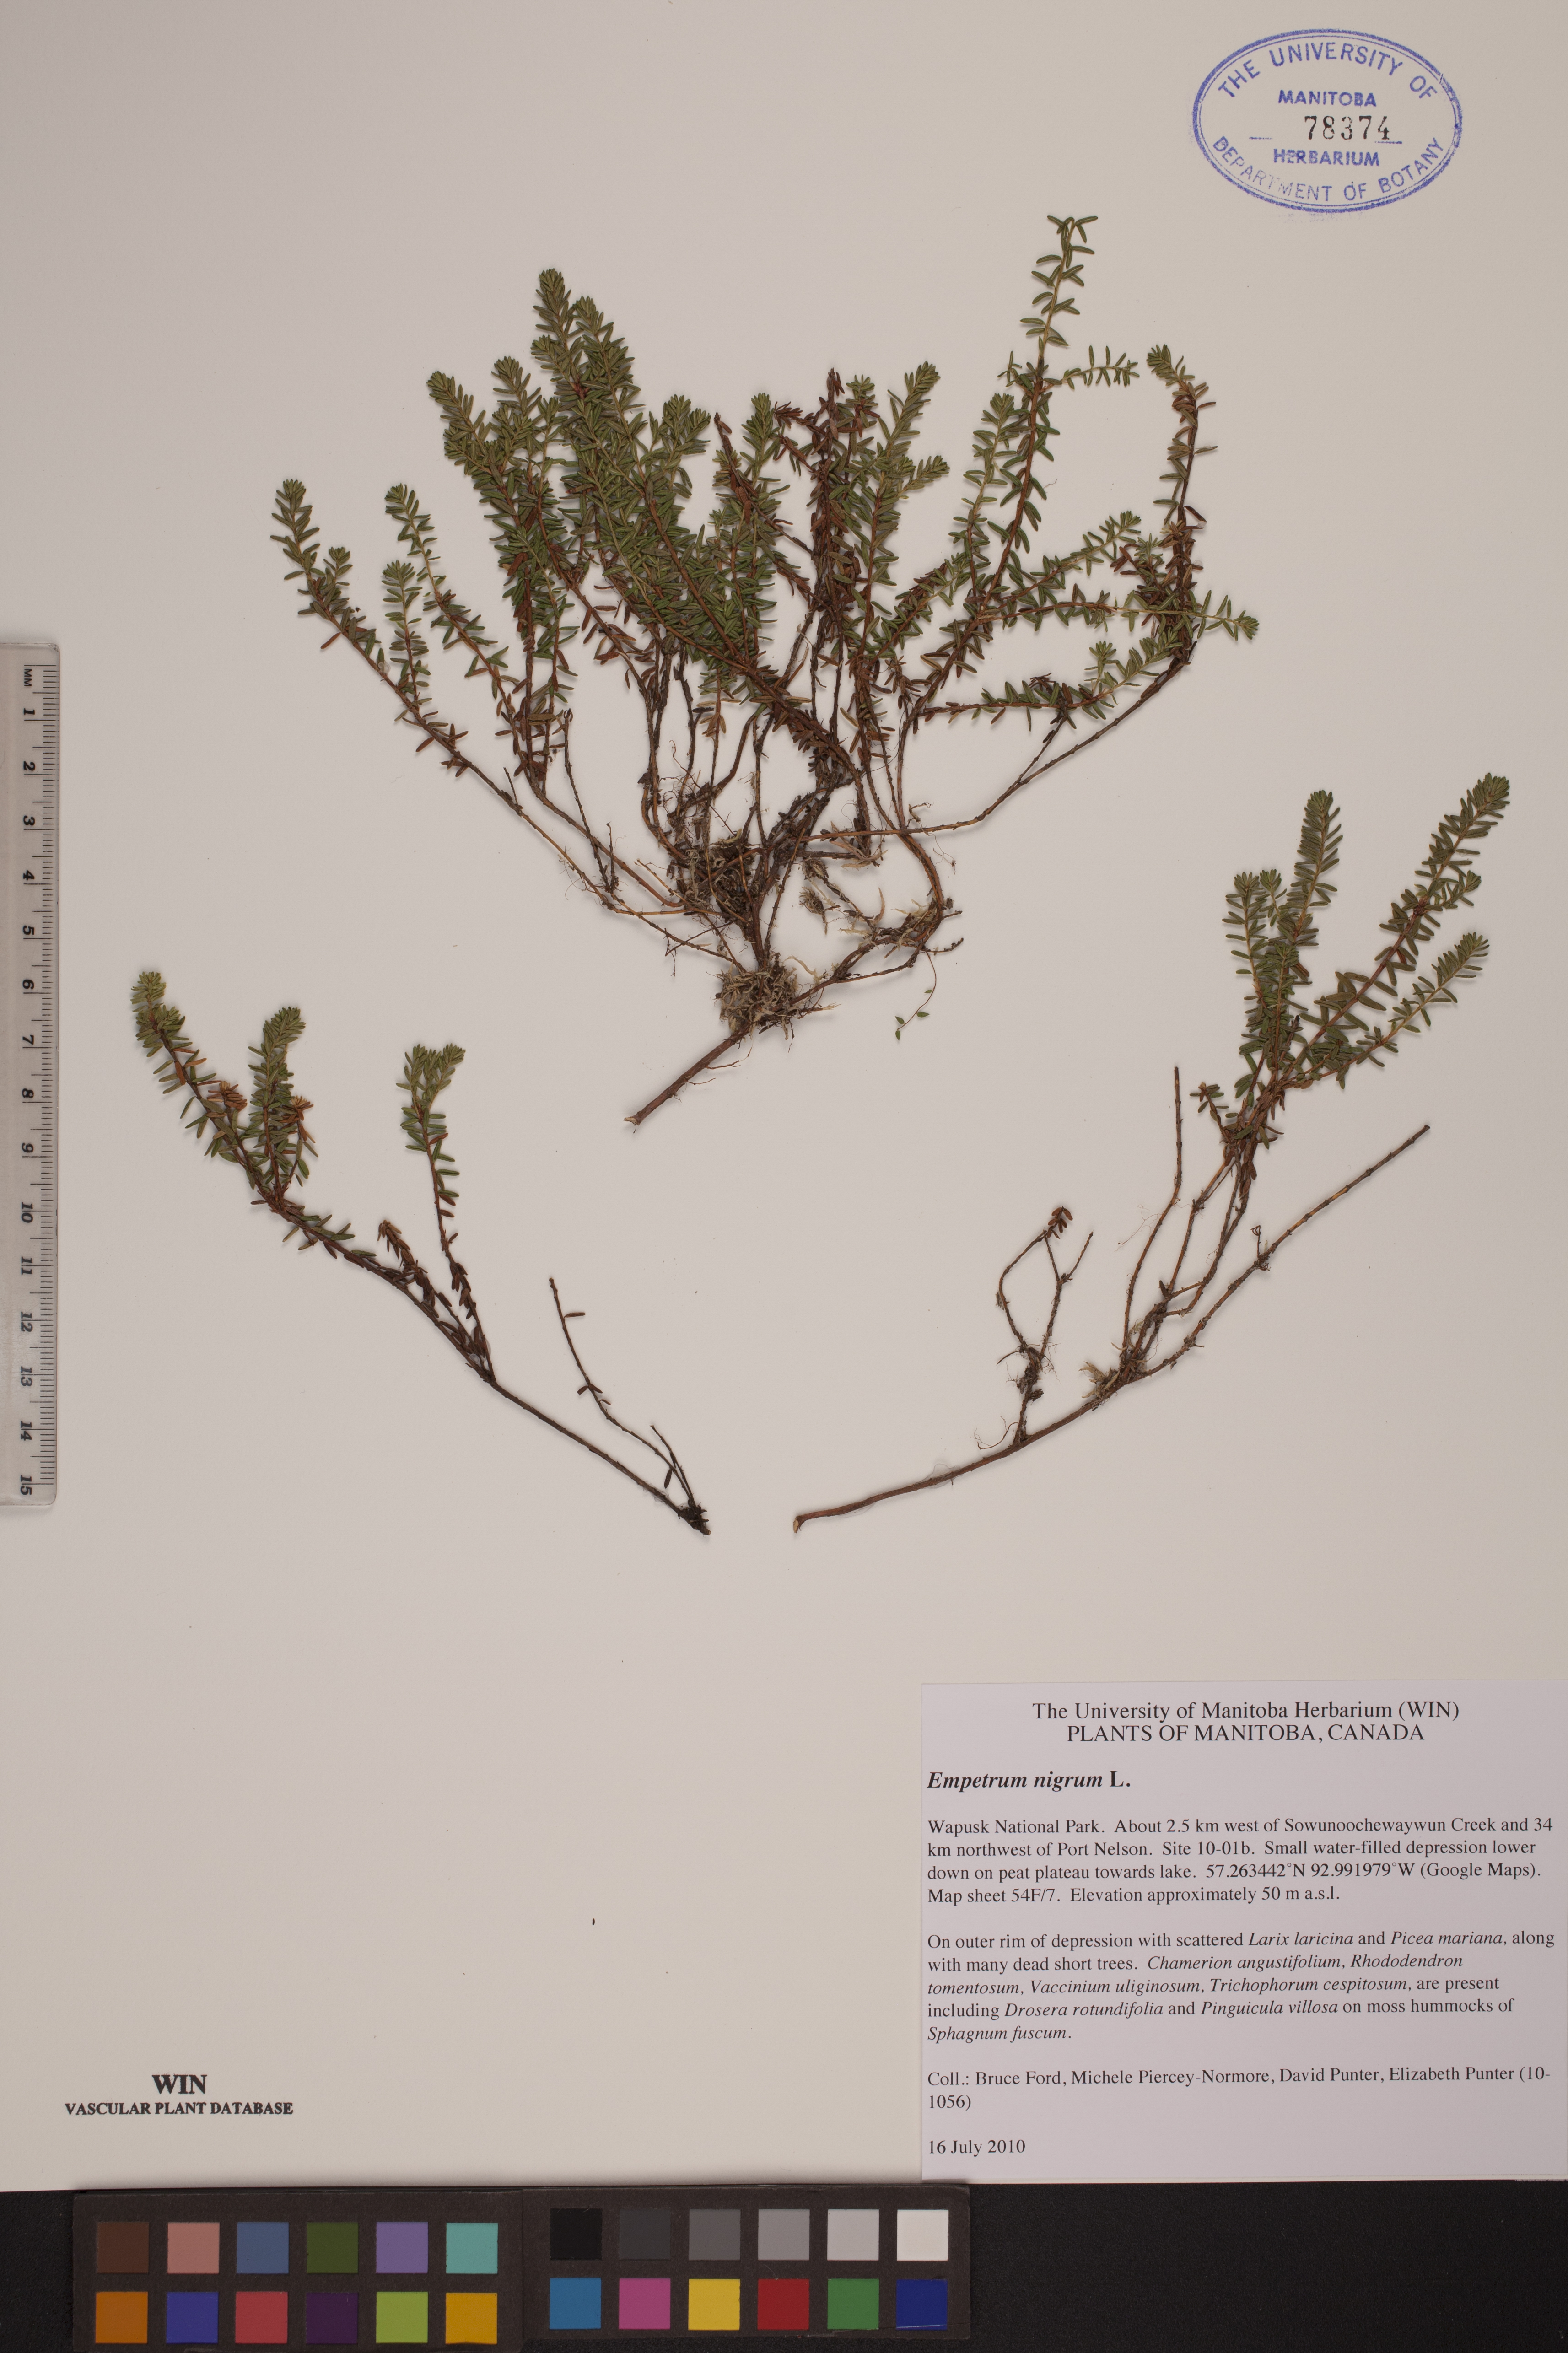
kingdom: Plantae
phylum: Tracheophyta
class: Magnoliopsida
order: Ericales
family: Ericaceae
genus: Empetrum
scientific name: Empetrum nigrum
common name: Black crowberry
